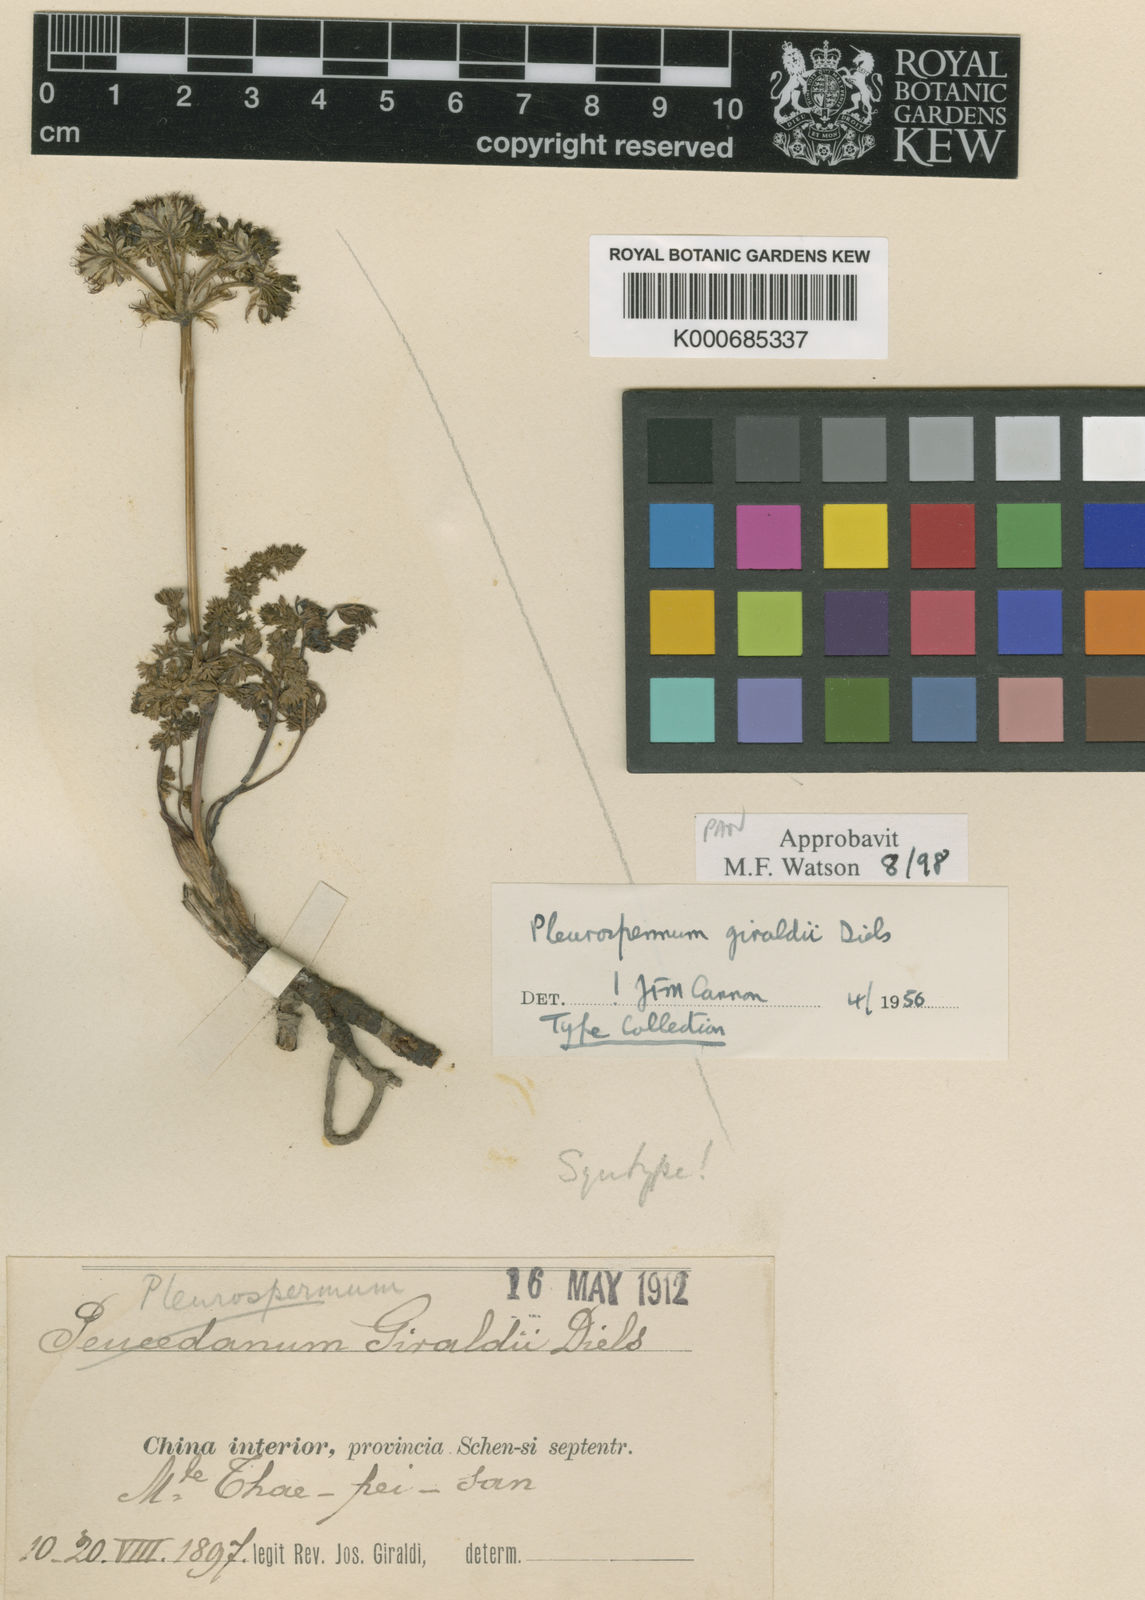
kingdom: Plantae
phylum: Tracheophyta
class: Magnoliopsida
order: Apiales
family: Apiaceae
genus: Hymenidium
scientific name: Hymenidium giraldii
